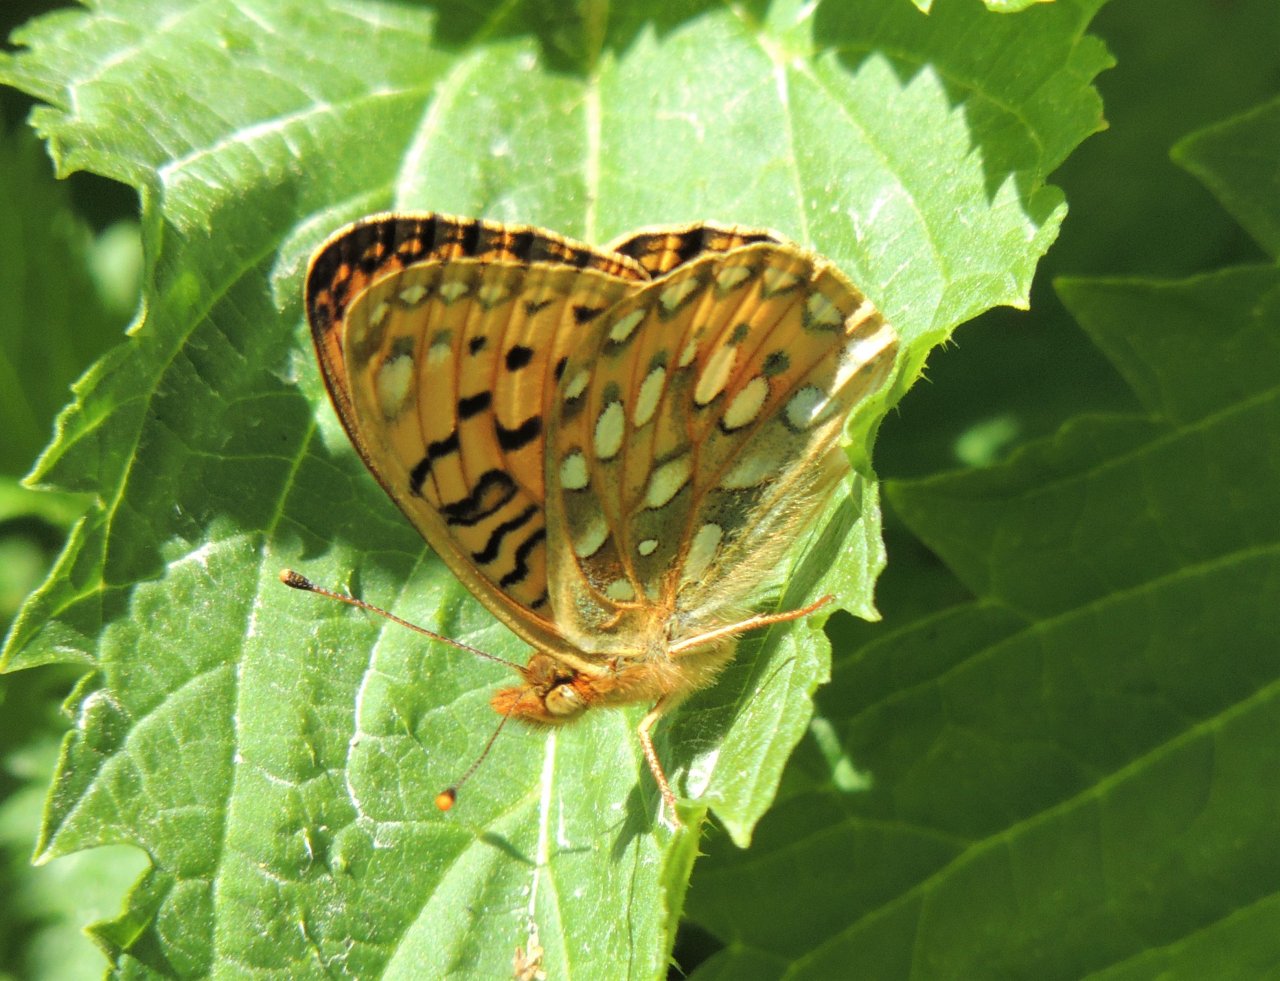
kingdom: Animalia
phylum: Arthropoda
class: Insecta
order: Lepidoptera
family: Nymphalidae
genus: Speyeria
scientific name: Speyeria mormonia
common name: Mormon Fritillary
